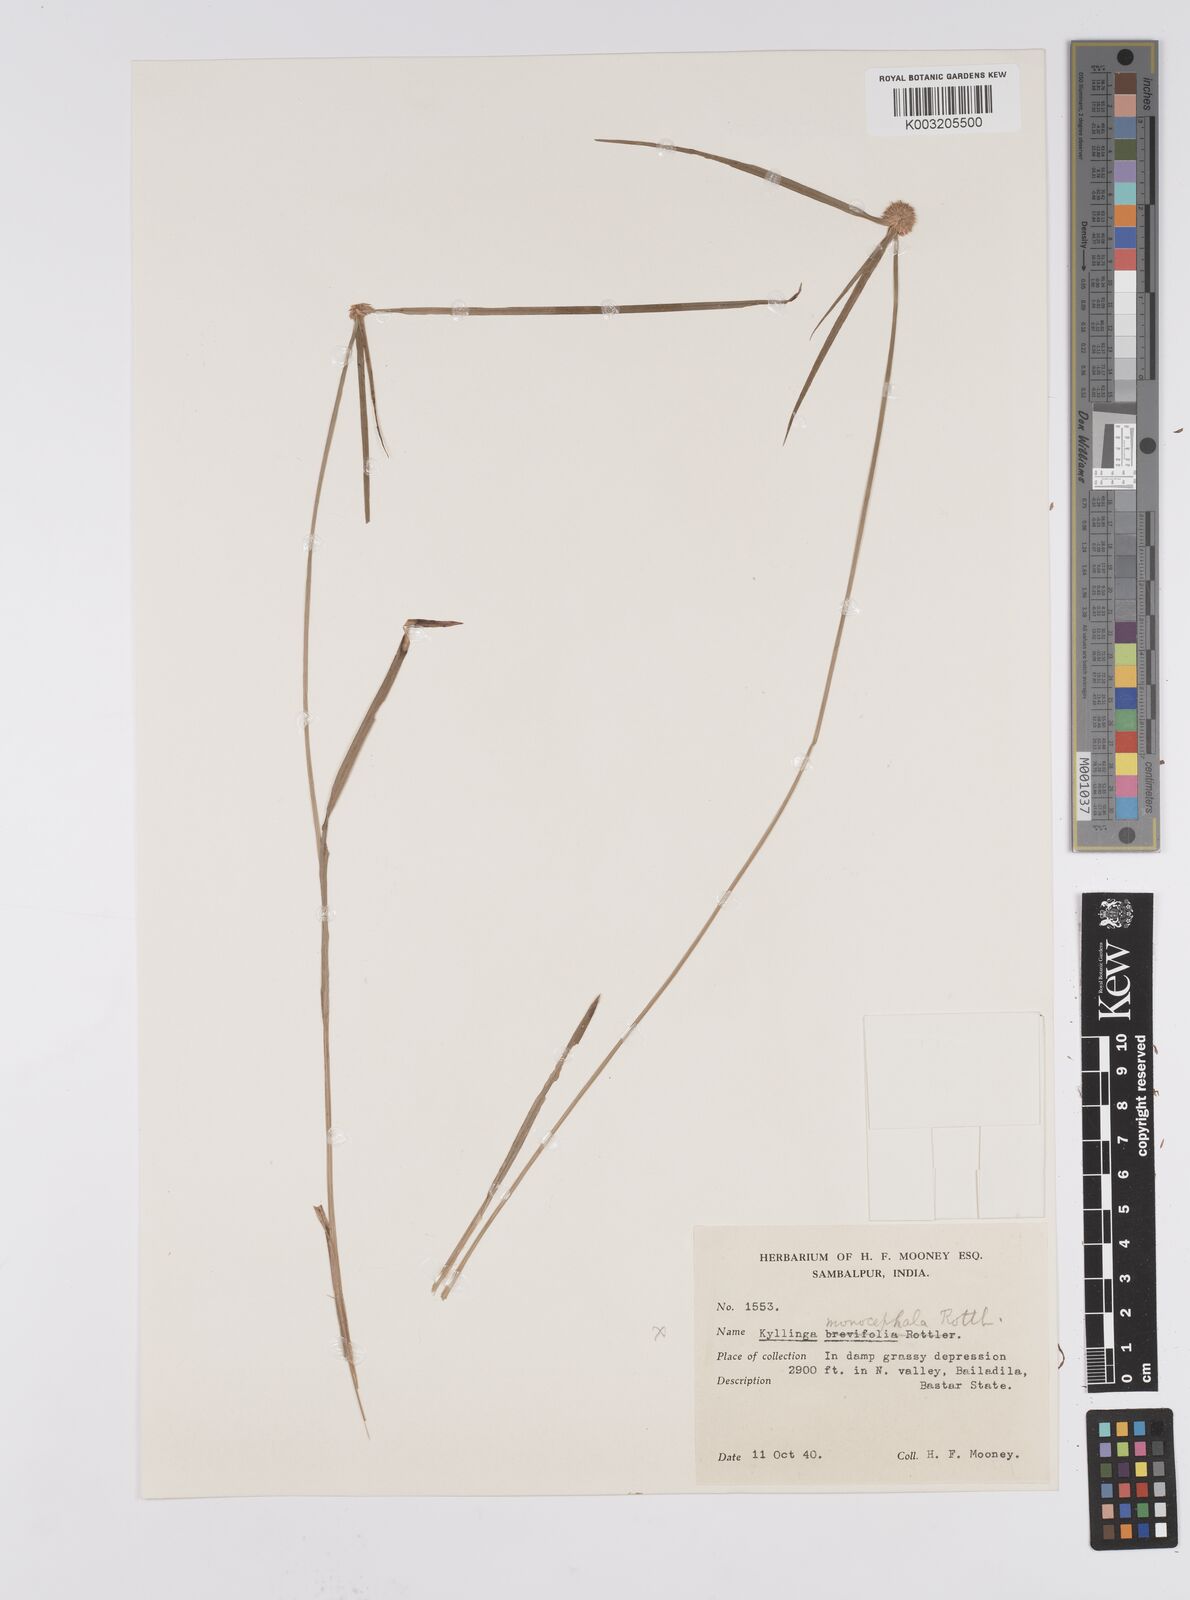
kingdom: Plantae
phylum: Tracheophyta
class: Liliopsida
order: Poales
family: Cyperaceae
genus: Cyperus
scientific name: Cyperus nemoralis
